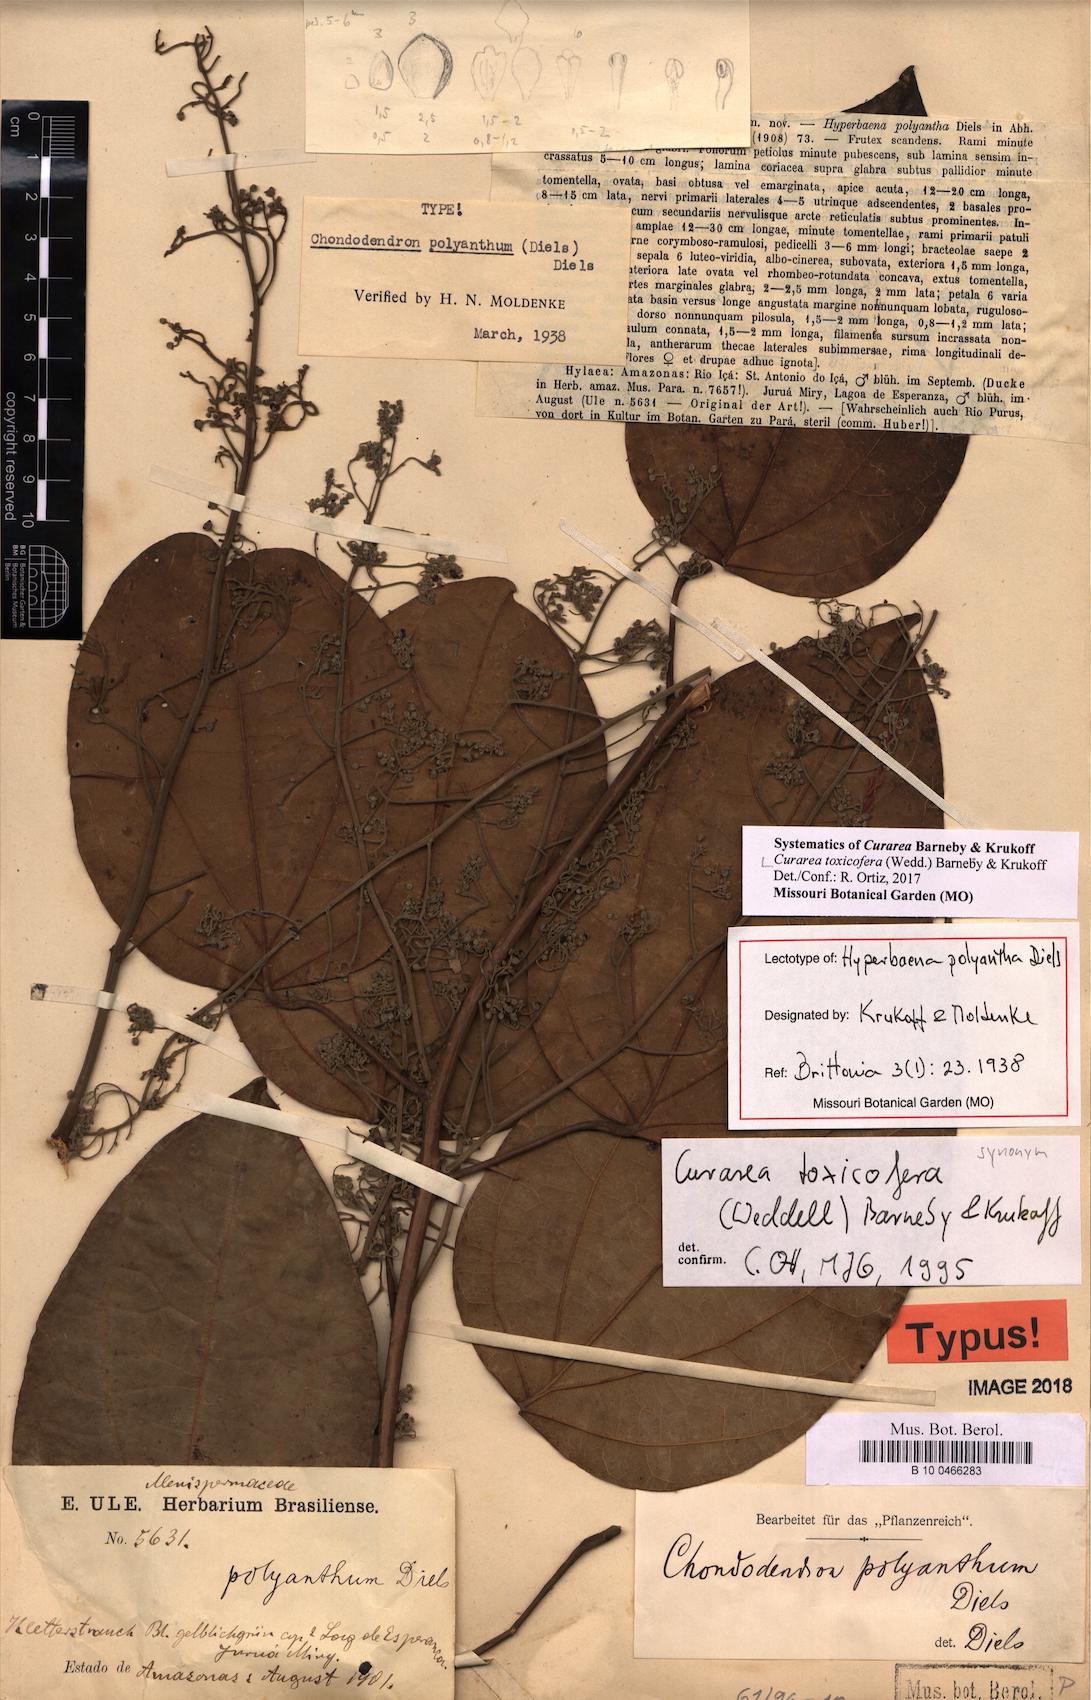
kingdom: Plantae
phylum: Tracheophyta
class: Magnoliopsida
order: Ranunculales
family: Menispermaceae
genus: Curarea
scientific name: Curarea toxicofera
